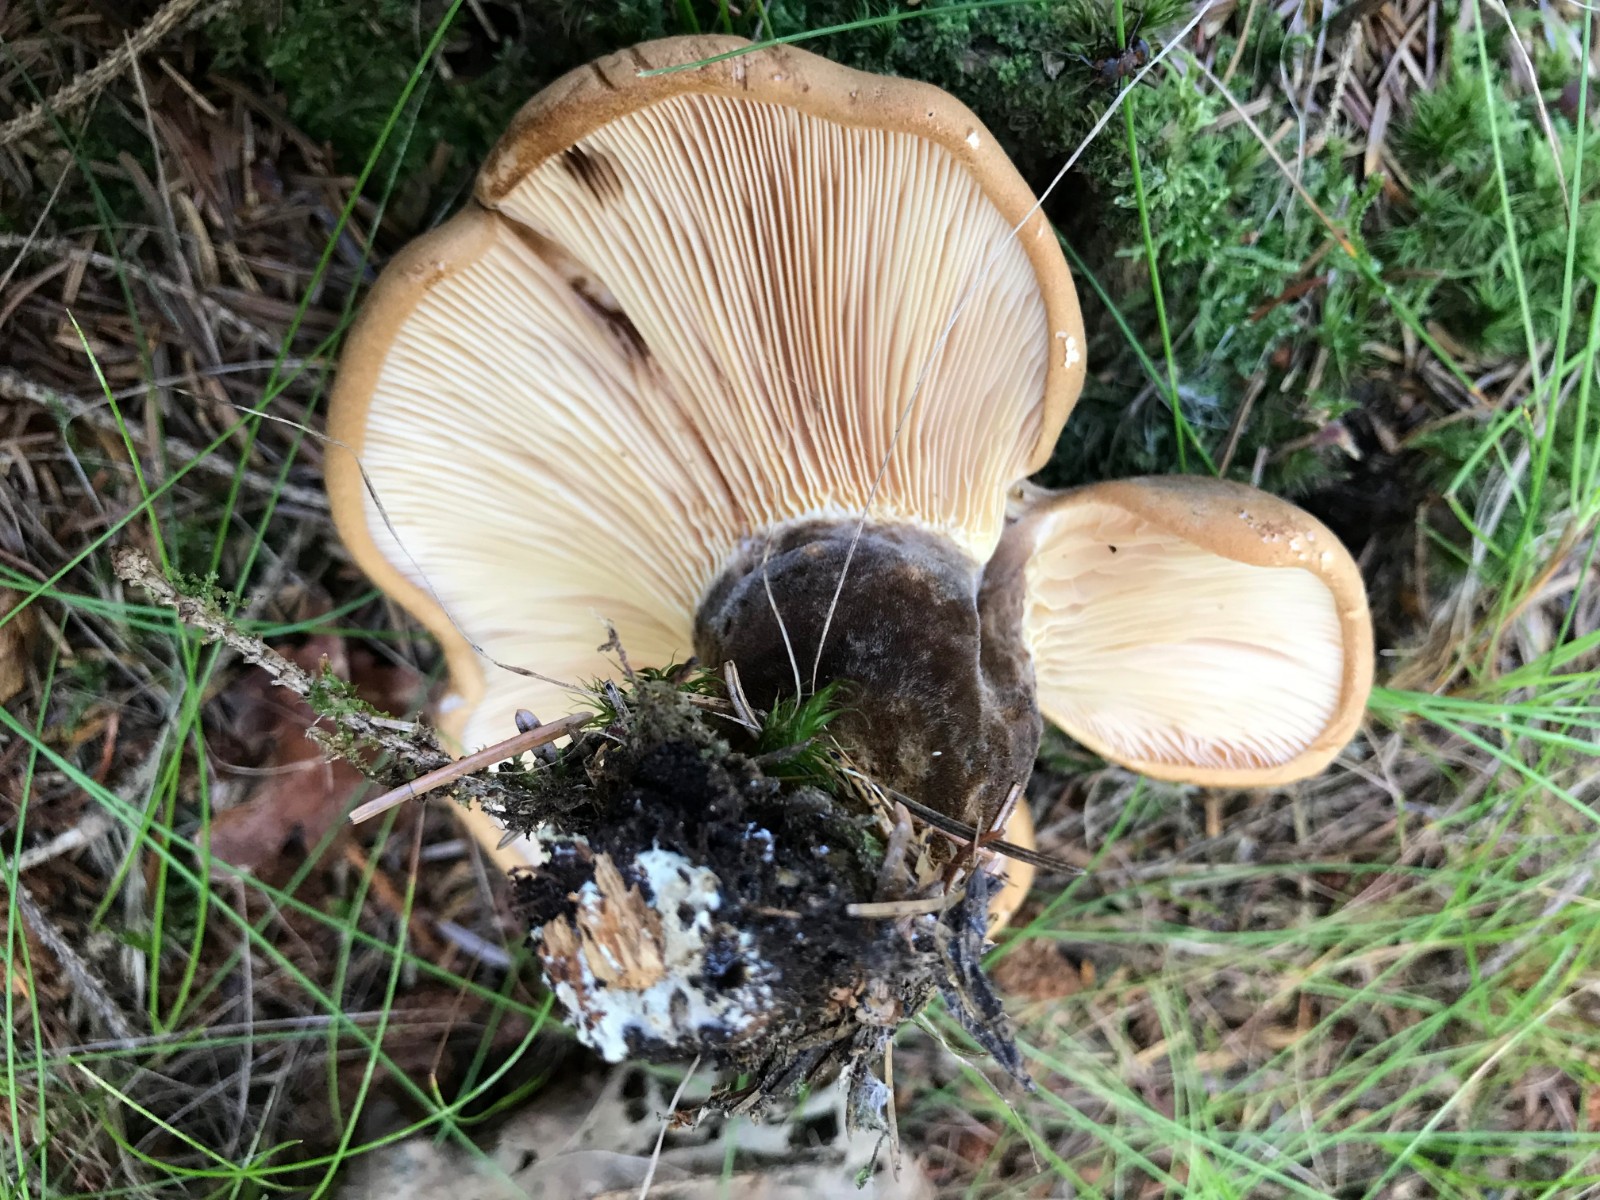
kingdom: Fungi
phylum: Basidiomycota
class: Agaricomycetes
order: Boletales
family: Tapinellaceae
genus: Tapinella
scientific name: Tapinella atrotomentosa
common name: sortfiltet viftesvamp
